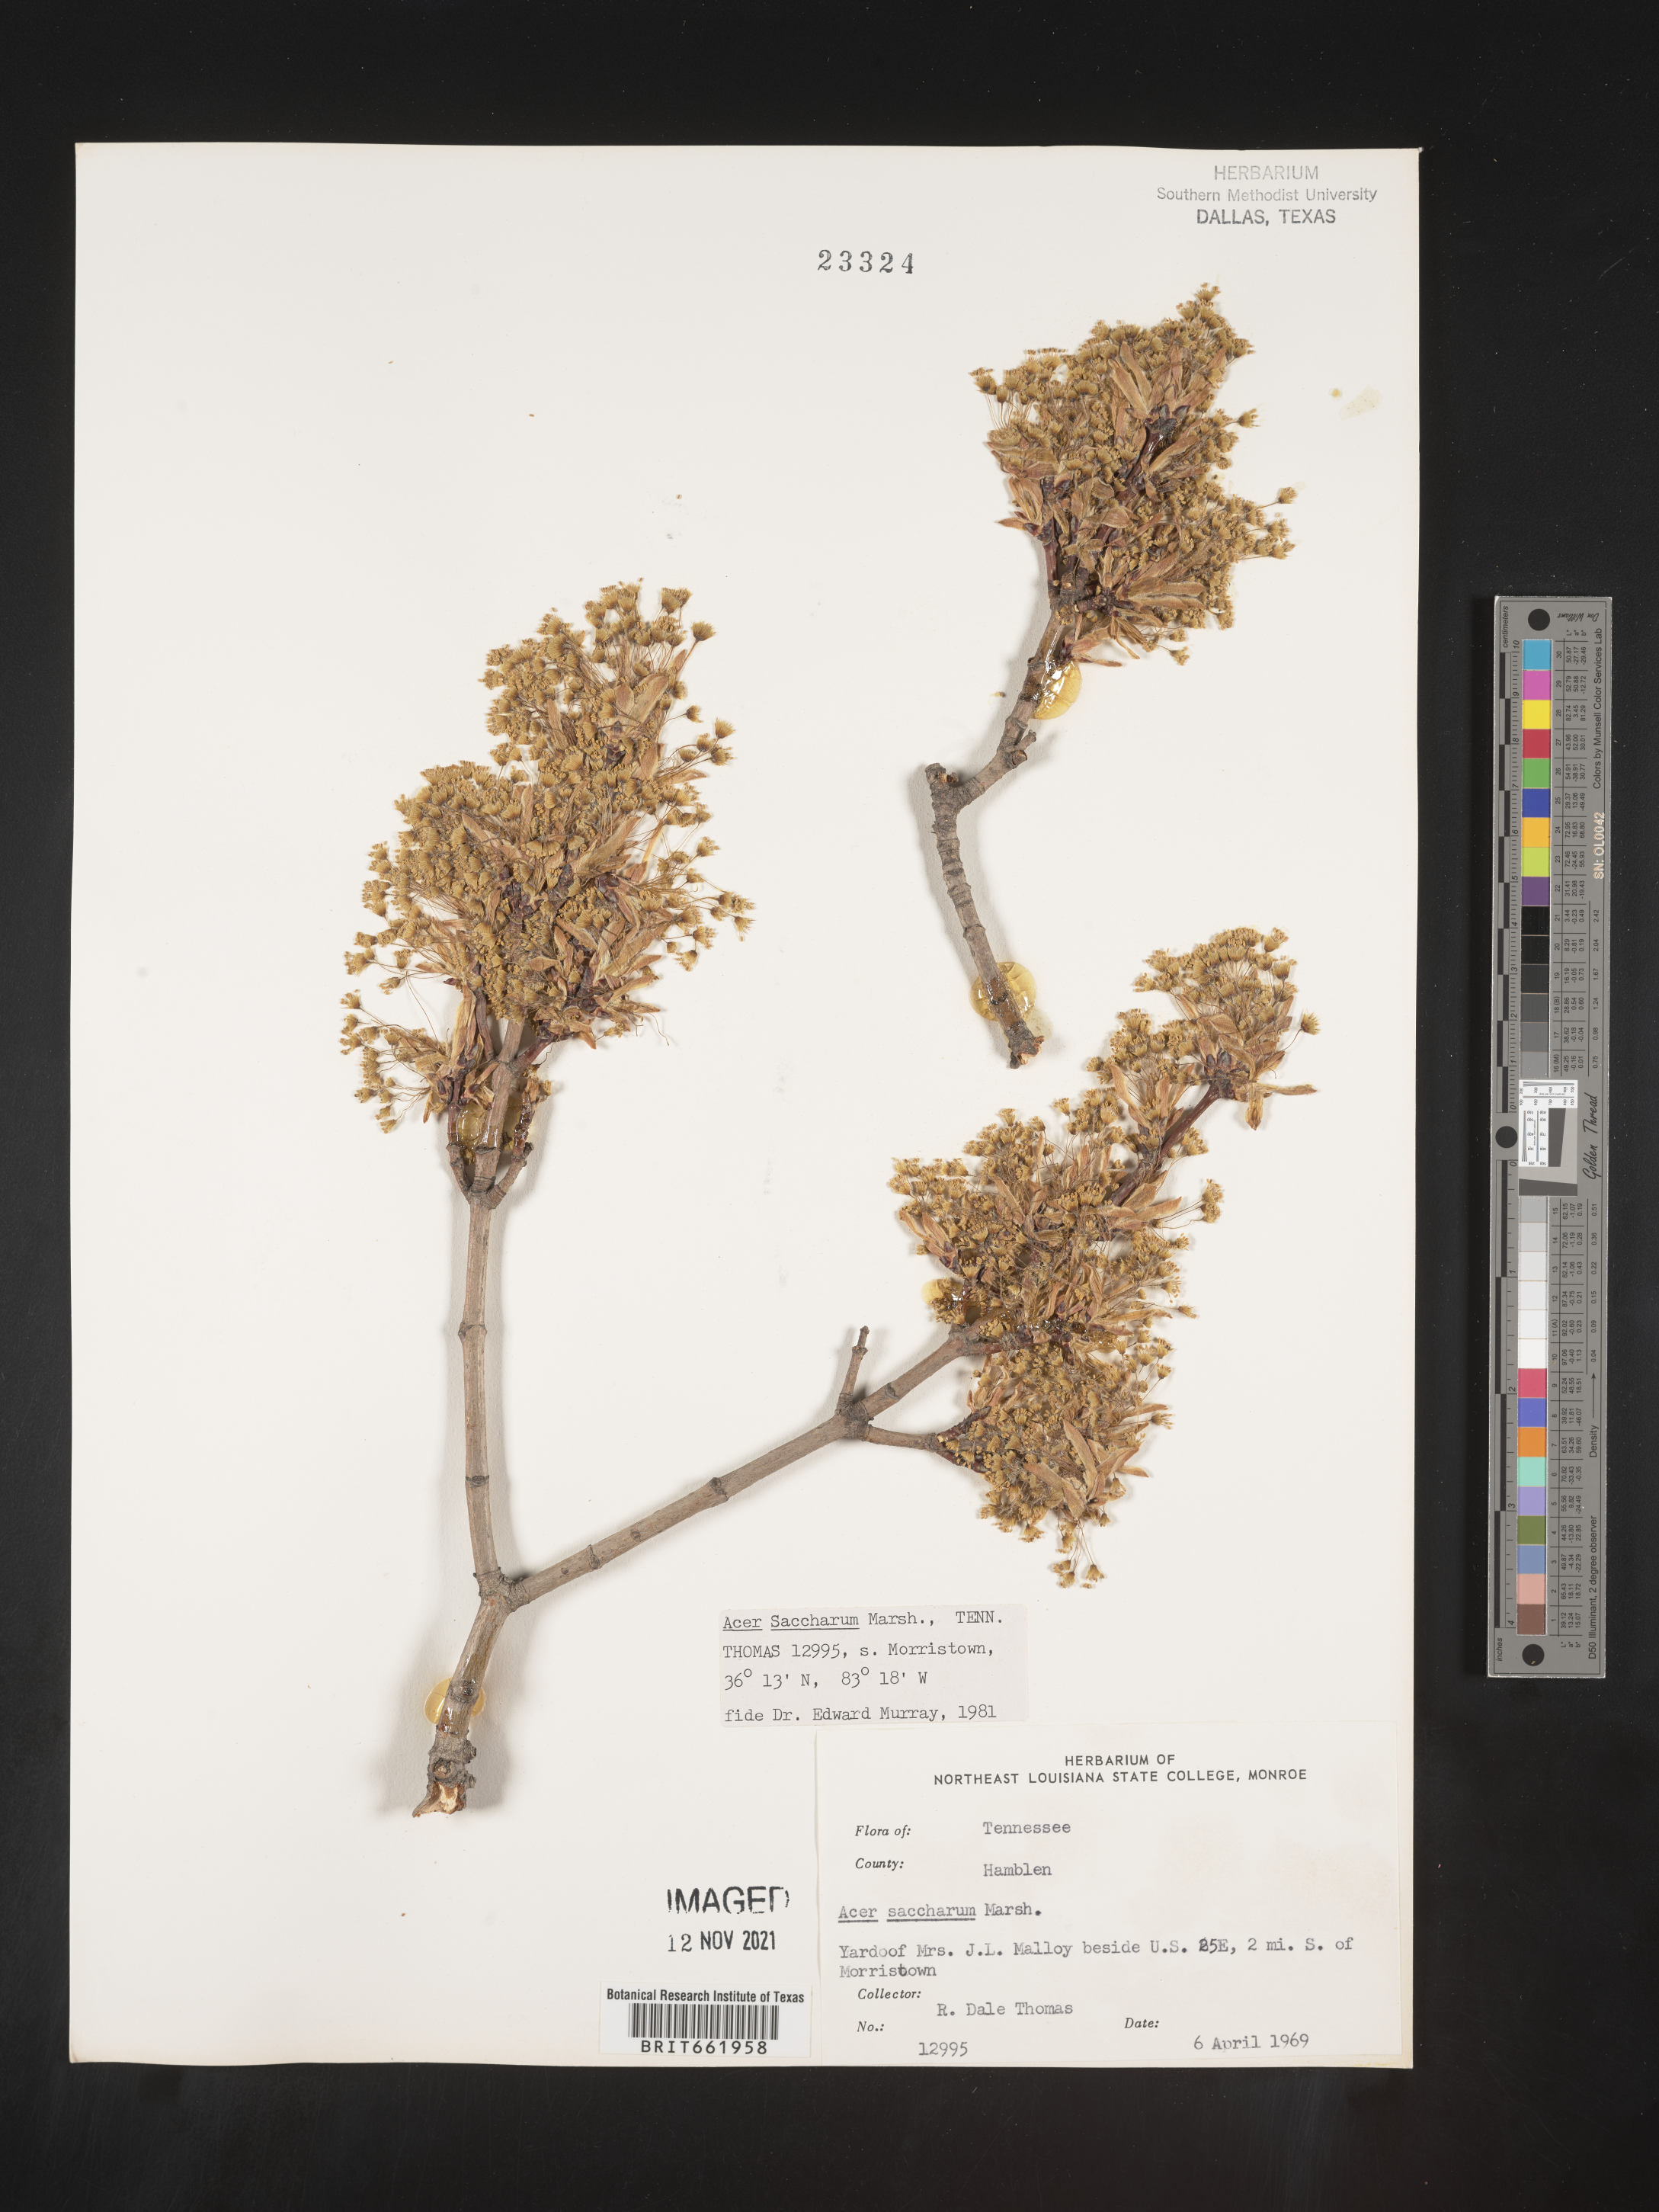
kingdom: Plantae
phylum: Tracheophyta
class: Magnoliopsida
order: Sapindales
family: Sapindaceae
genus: Acer
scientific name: Acer saccharum
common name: Sugar maple
